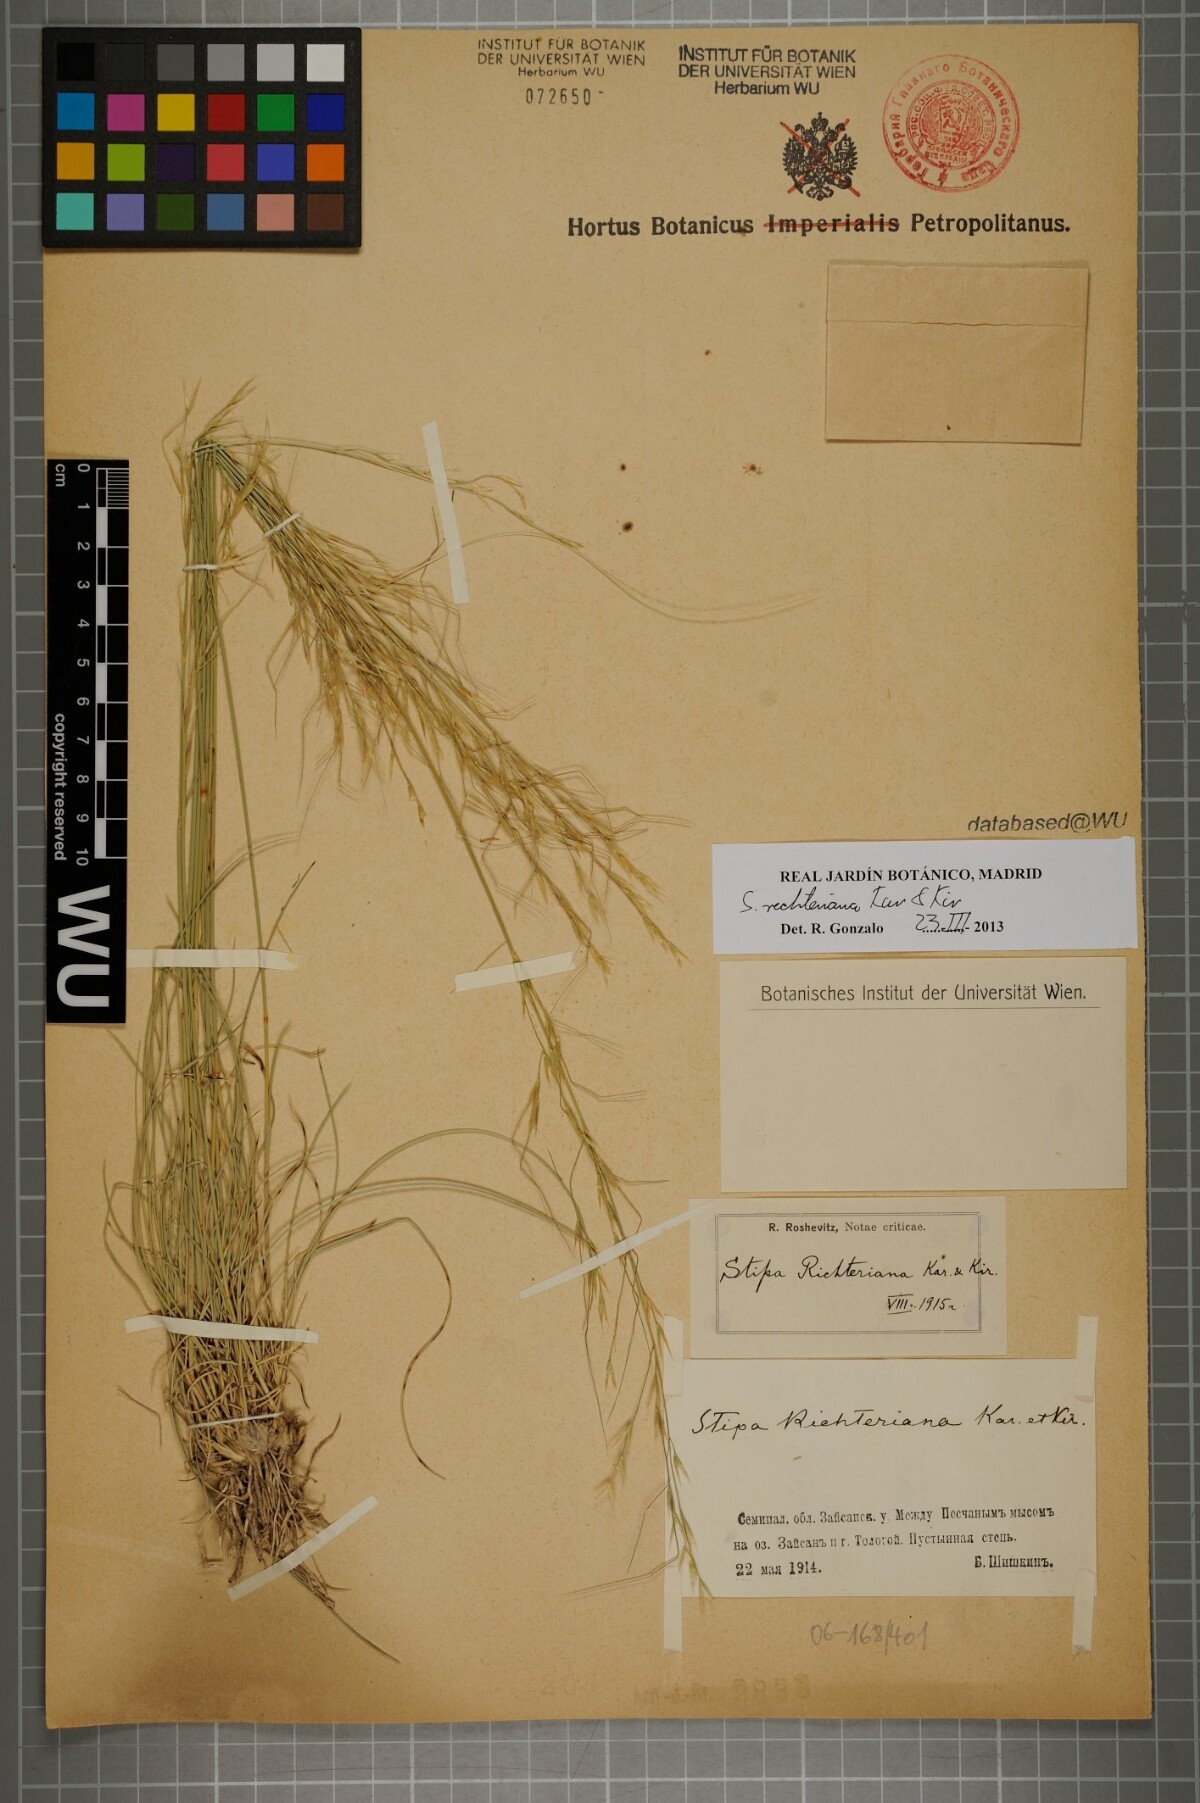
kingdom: Plantae
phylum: Tracheophyta
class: Liliopsida
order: Poales
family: Poaceae
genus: Stipa
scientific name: Stipa richteriana
